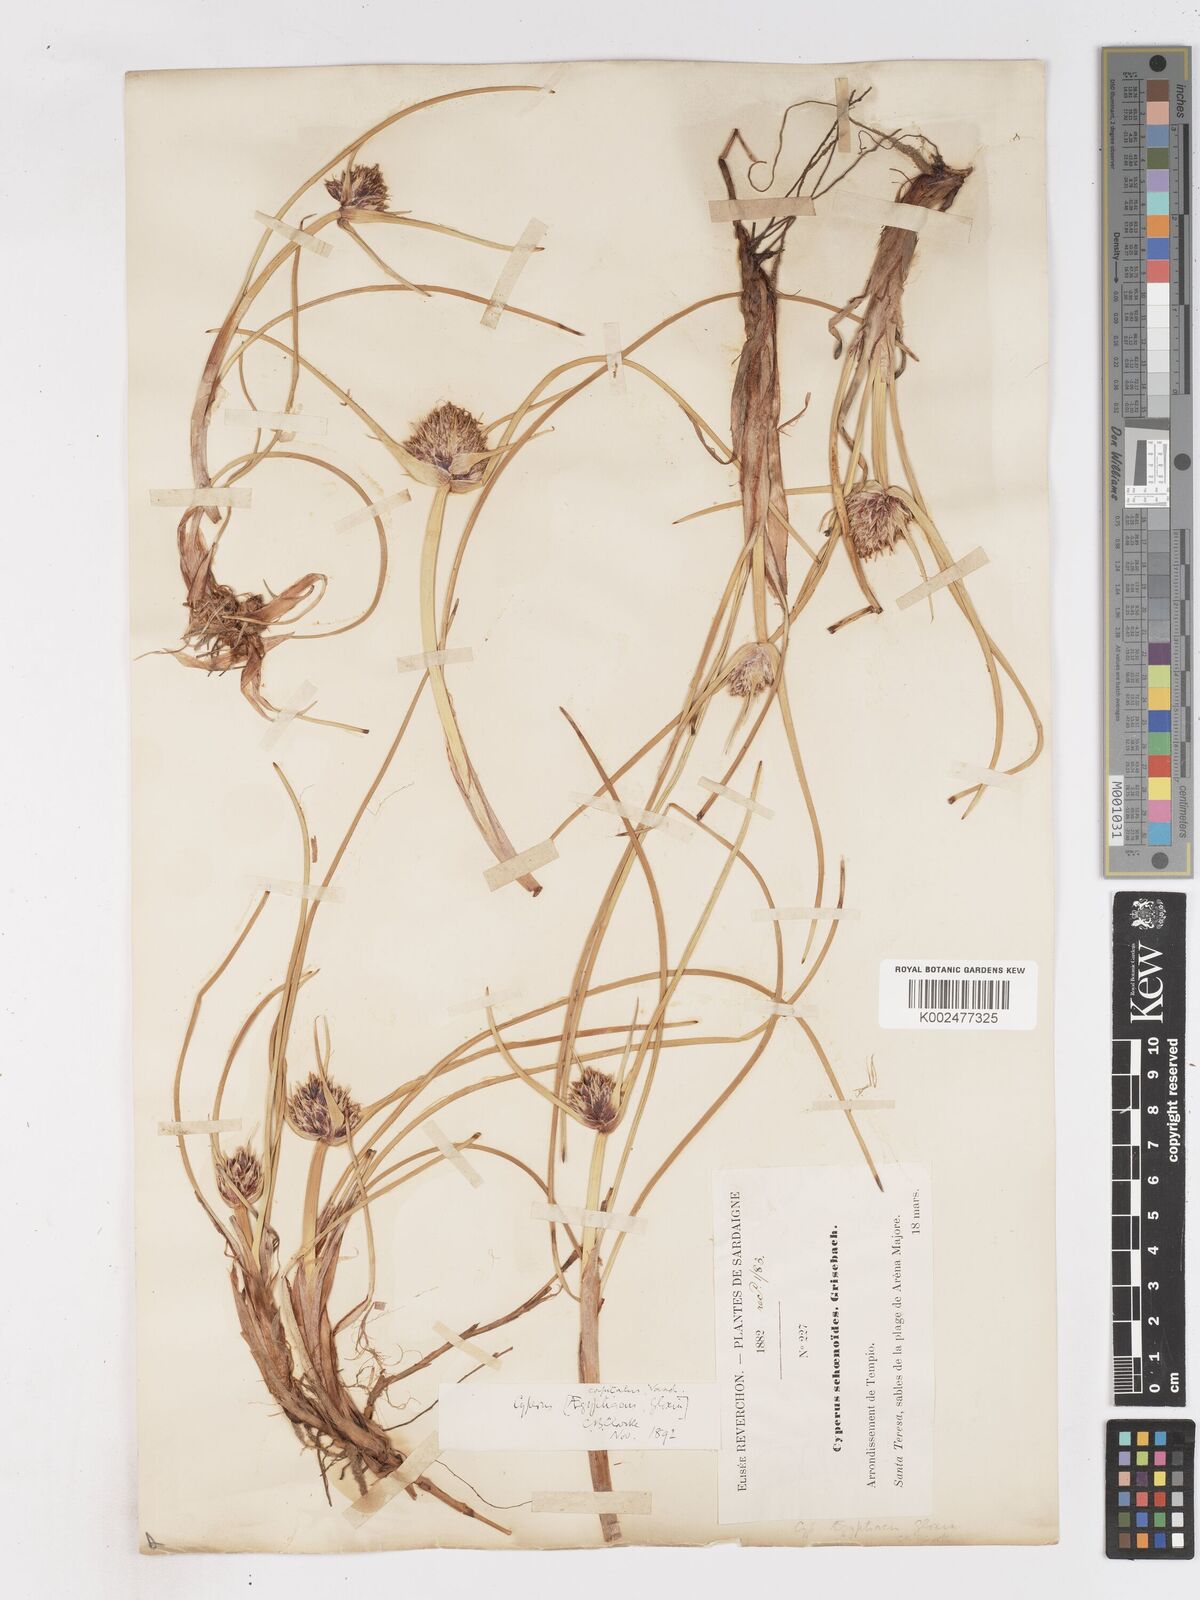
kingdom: Plantae
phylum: Tracheophyta
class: Liliopsida
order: Poales
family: Cyperaceae
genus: Cyperus
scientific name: Cyperus capitatus
